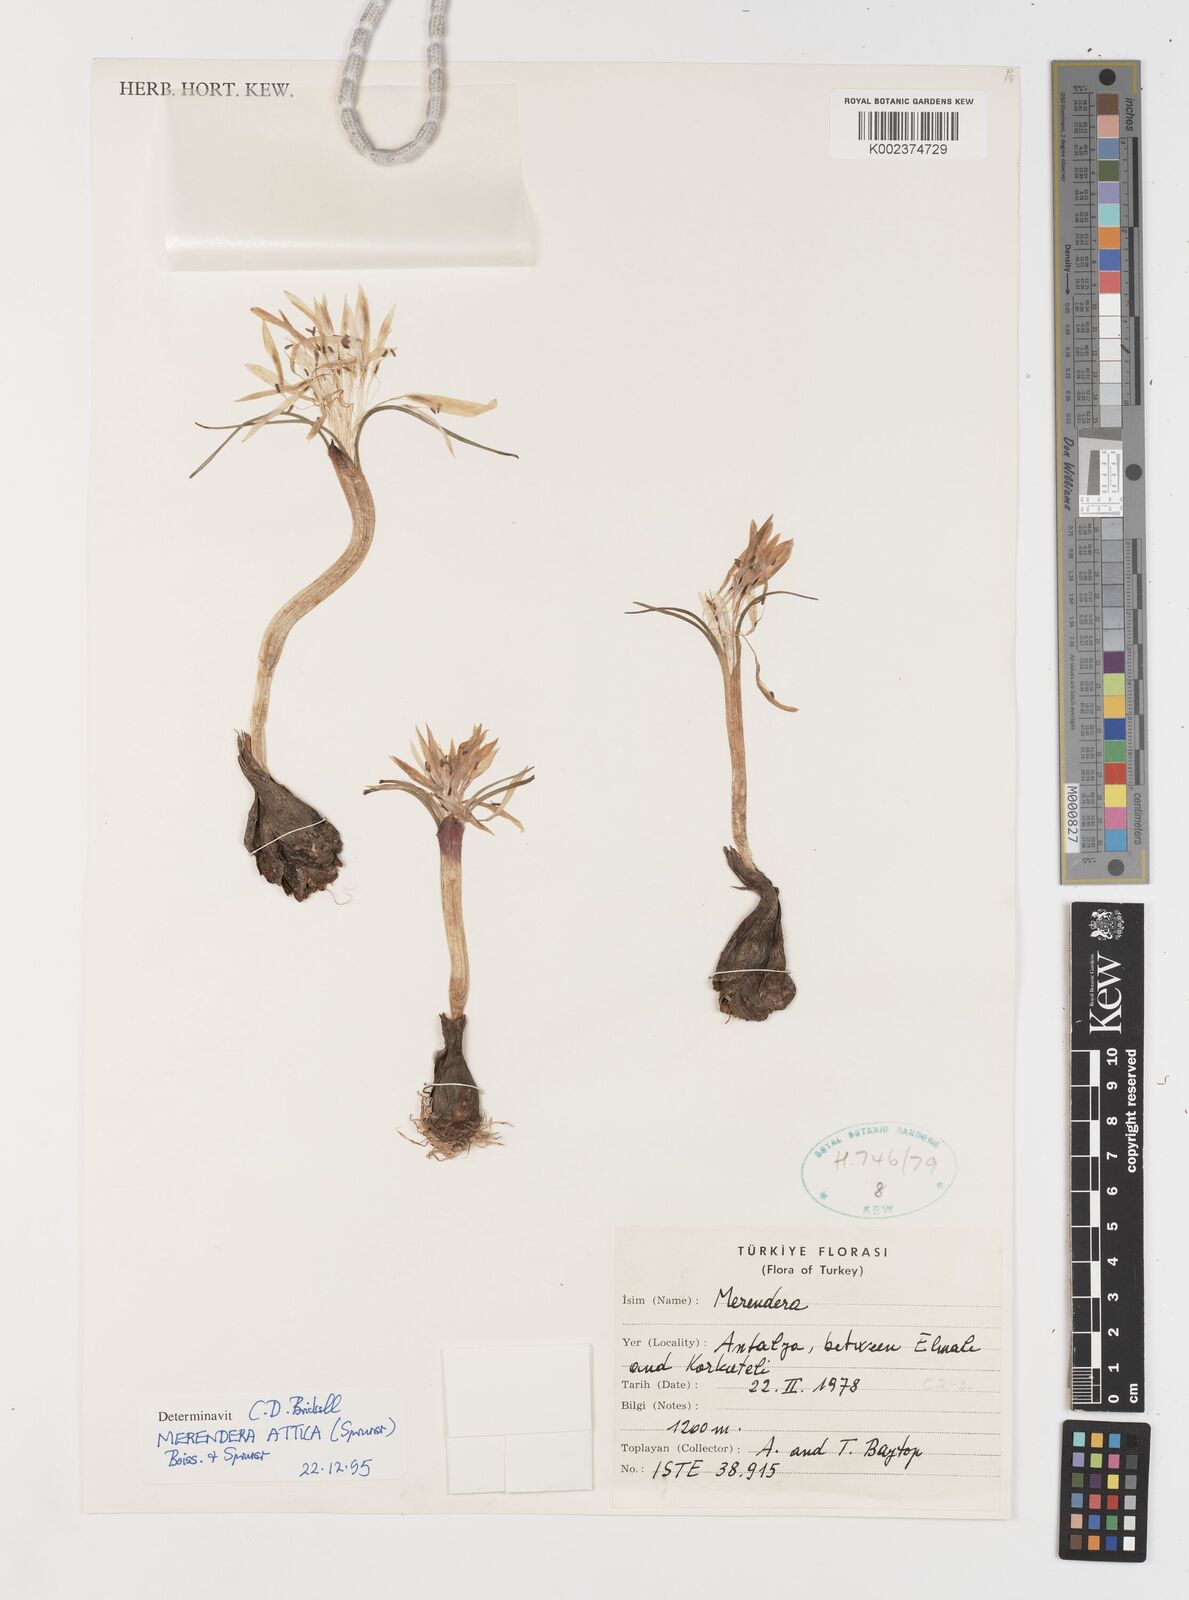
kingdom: Plantae
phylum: Tracheophyta
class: Liliopsida
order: Liliales
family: Colchicaceae
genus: Colchicum
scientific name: Colchicum atticum
